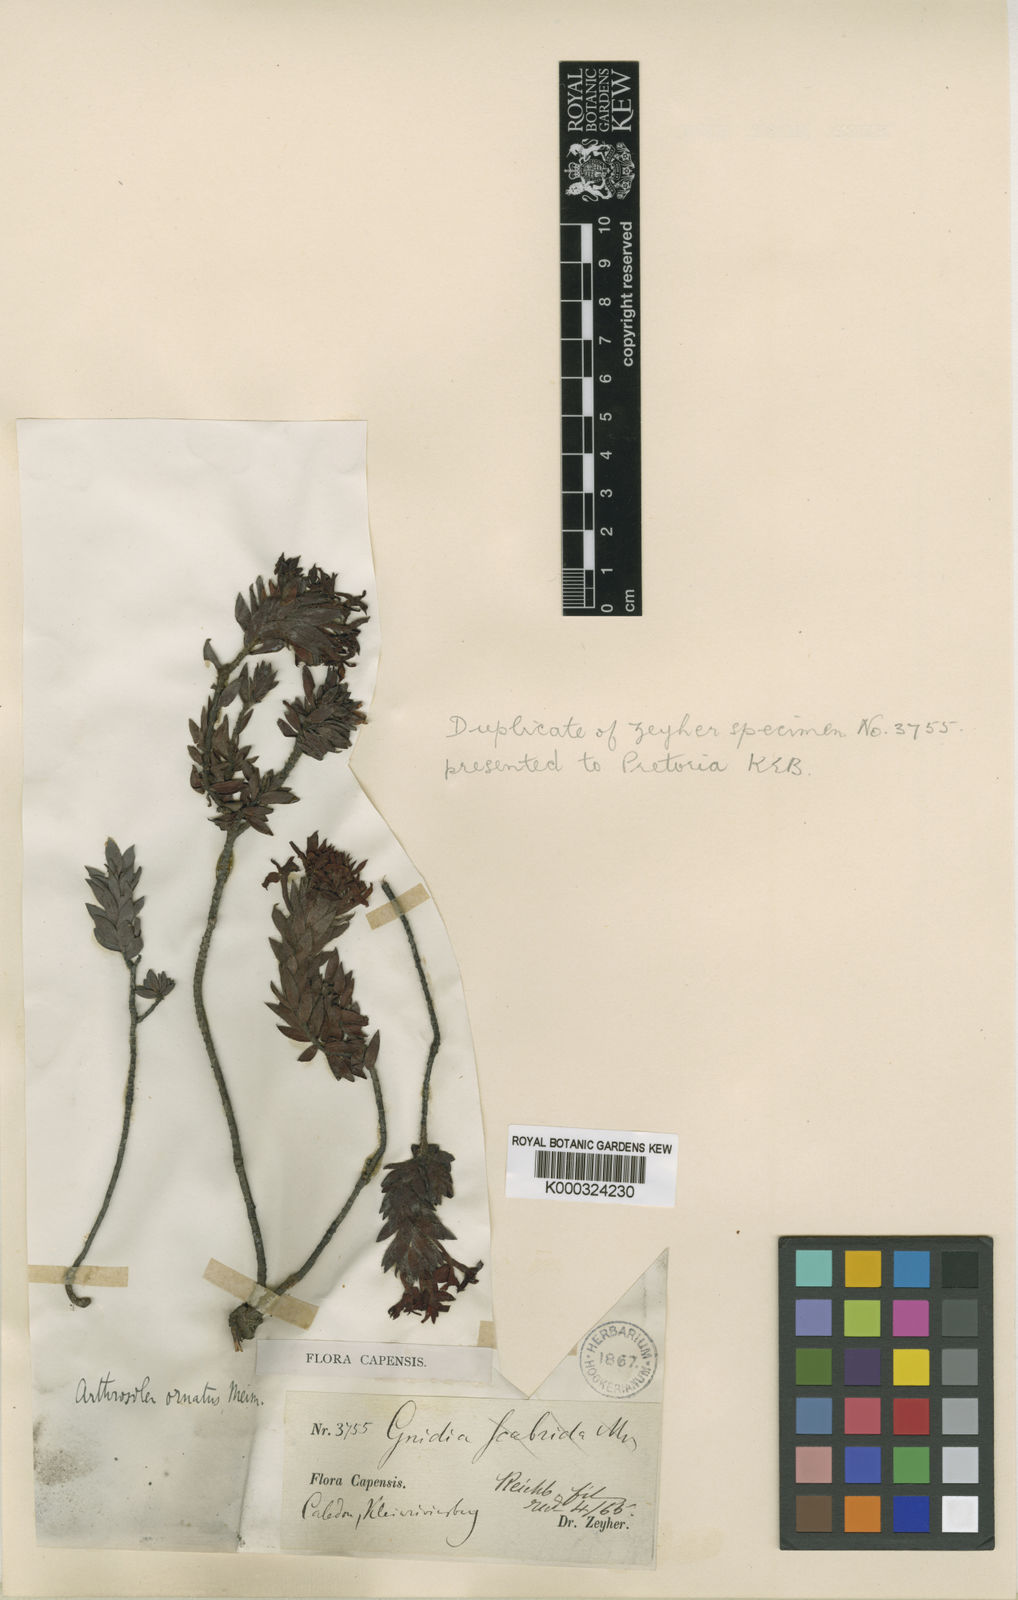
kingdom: Plantae
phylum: Tracheophyta
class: Magnoliopsida
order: Malvales
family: Thymelaeaceae
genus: Gnidia
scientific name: Gnidia ornata
